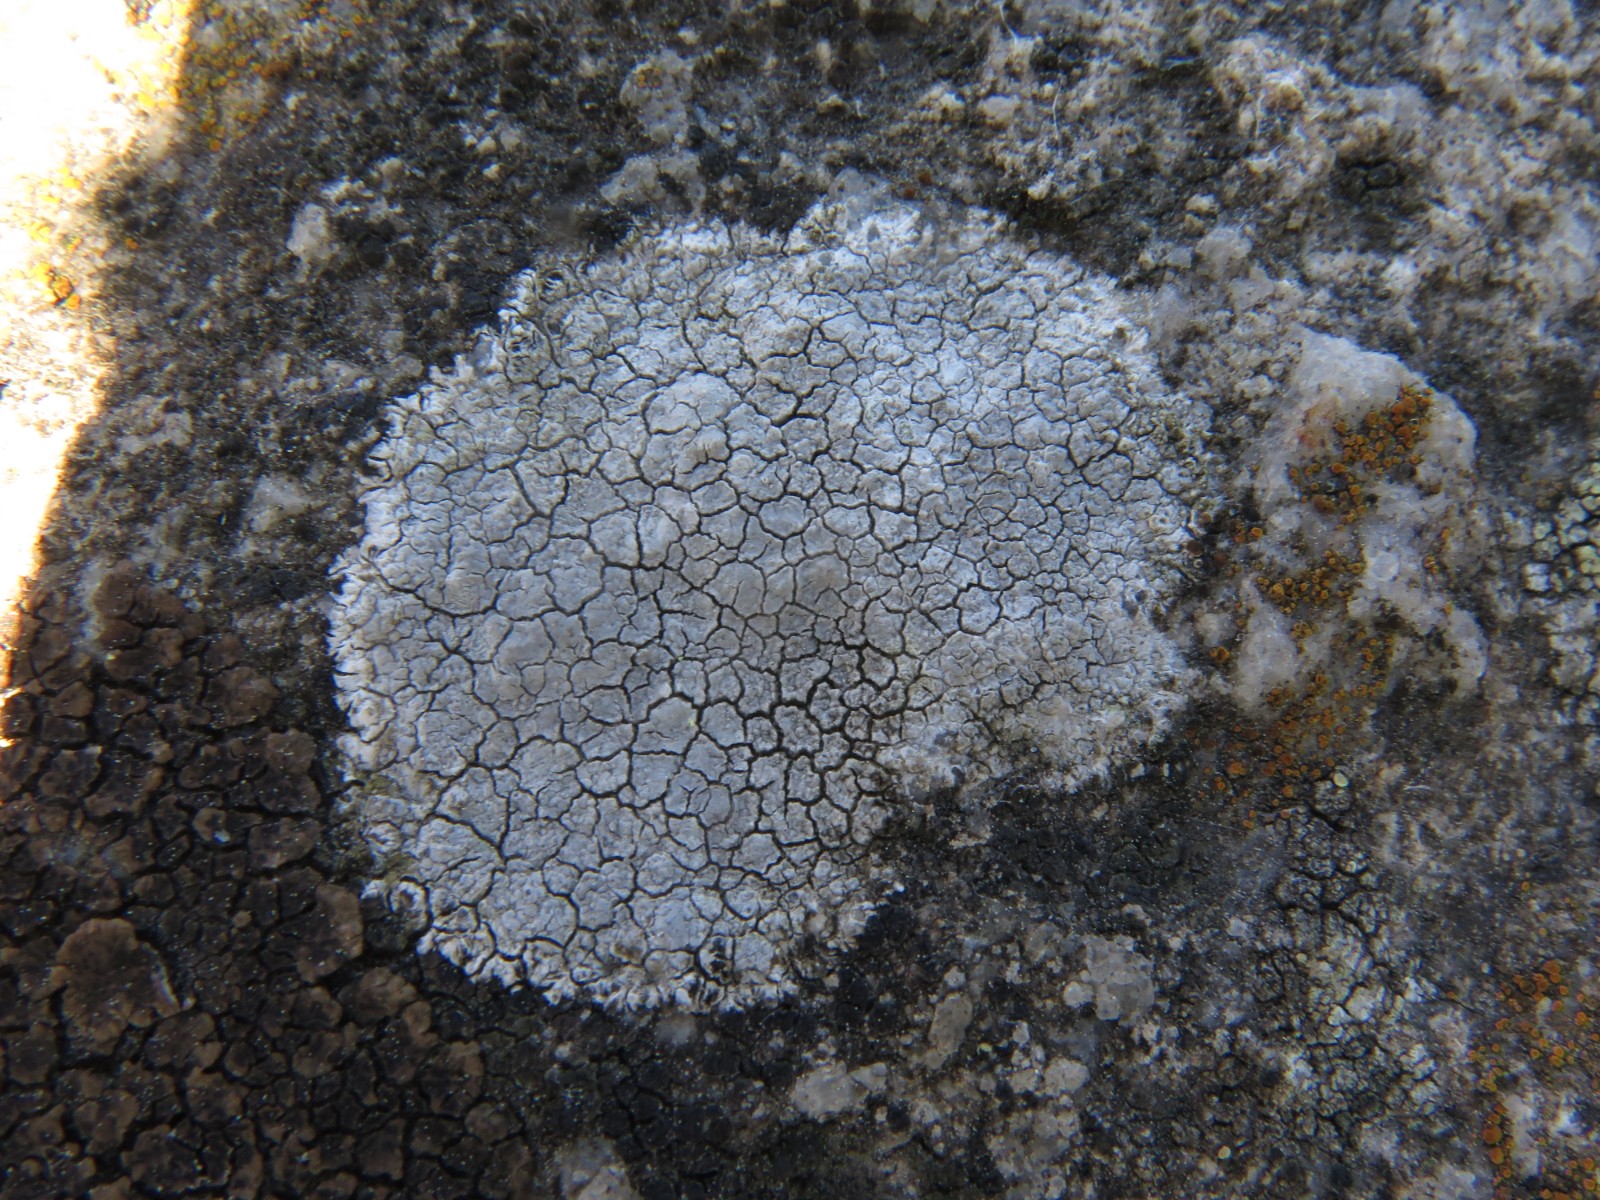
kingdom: Fungi
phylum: Ascomycota
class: Lecanoromycetes
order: Lecanorales
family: Lecanoraceae
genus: Glaucomaria
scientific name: Glaucomaria rupicola
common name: stengærde-kantskivelav
